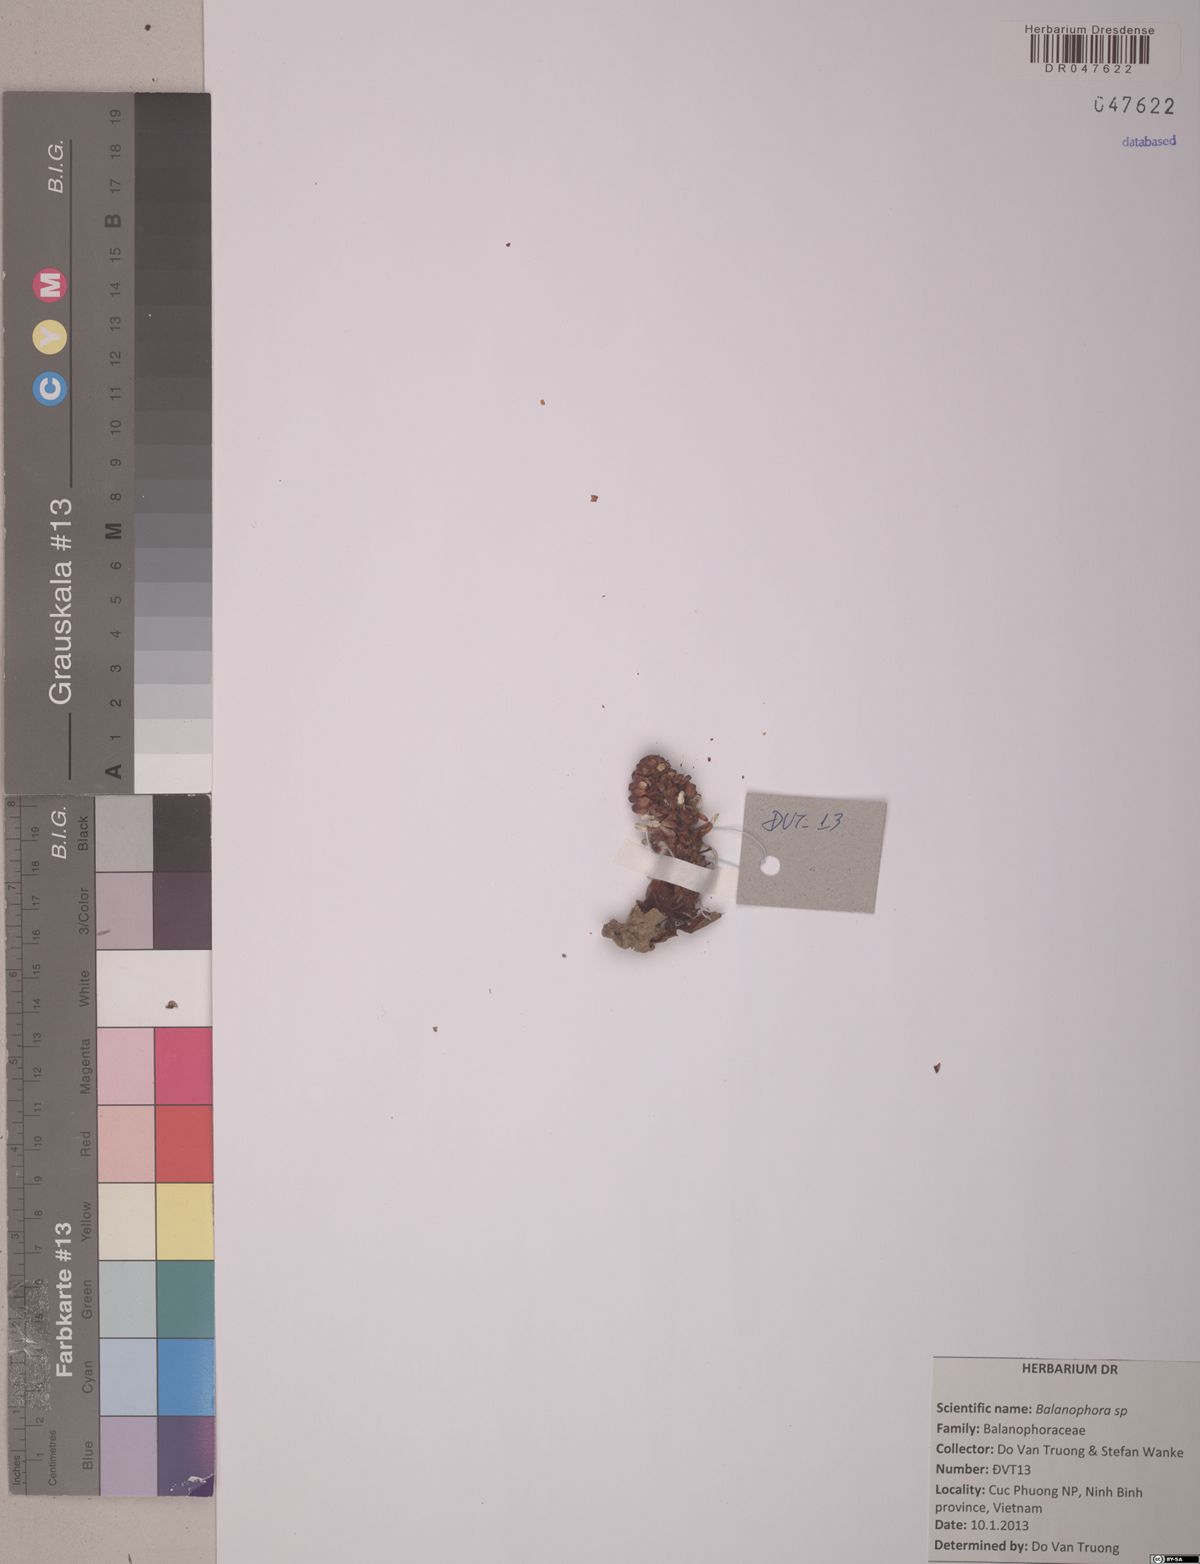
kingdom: Plantae
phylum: Tracheophyta
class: Magnoliopsida
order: Santalales
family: Balanophoraceae
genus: Balanophora
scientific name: Balanophora
